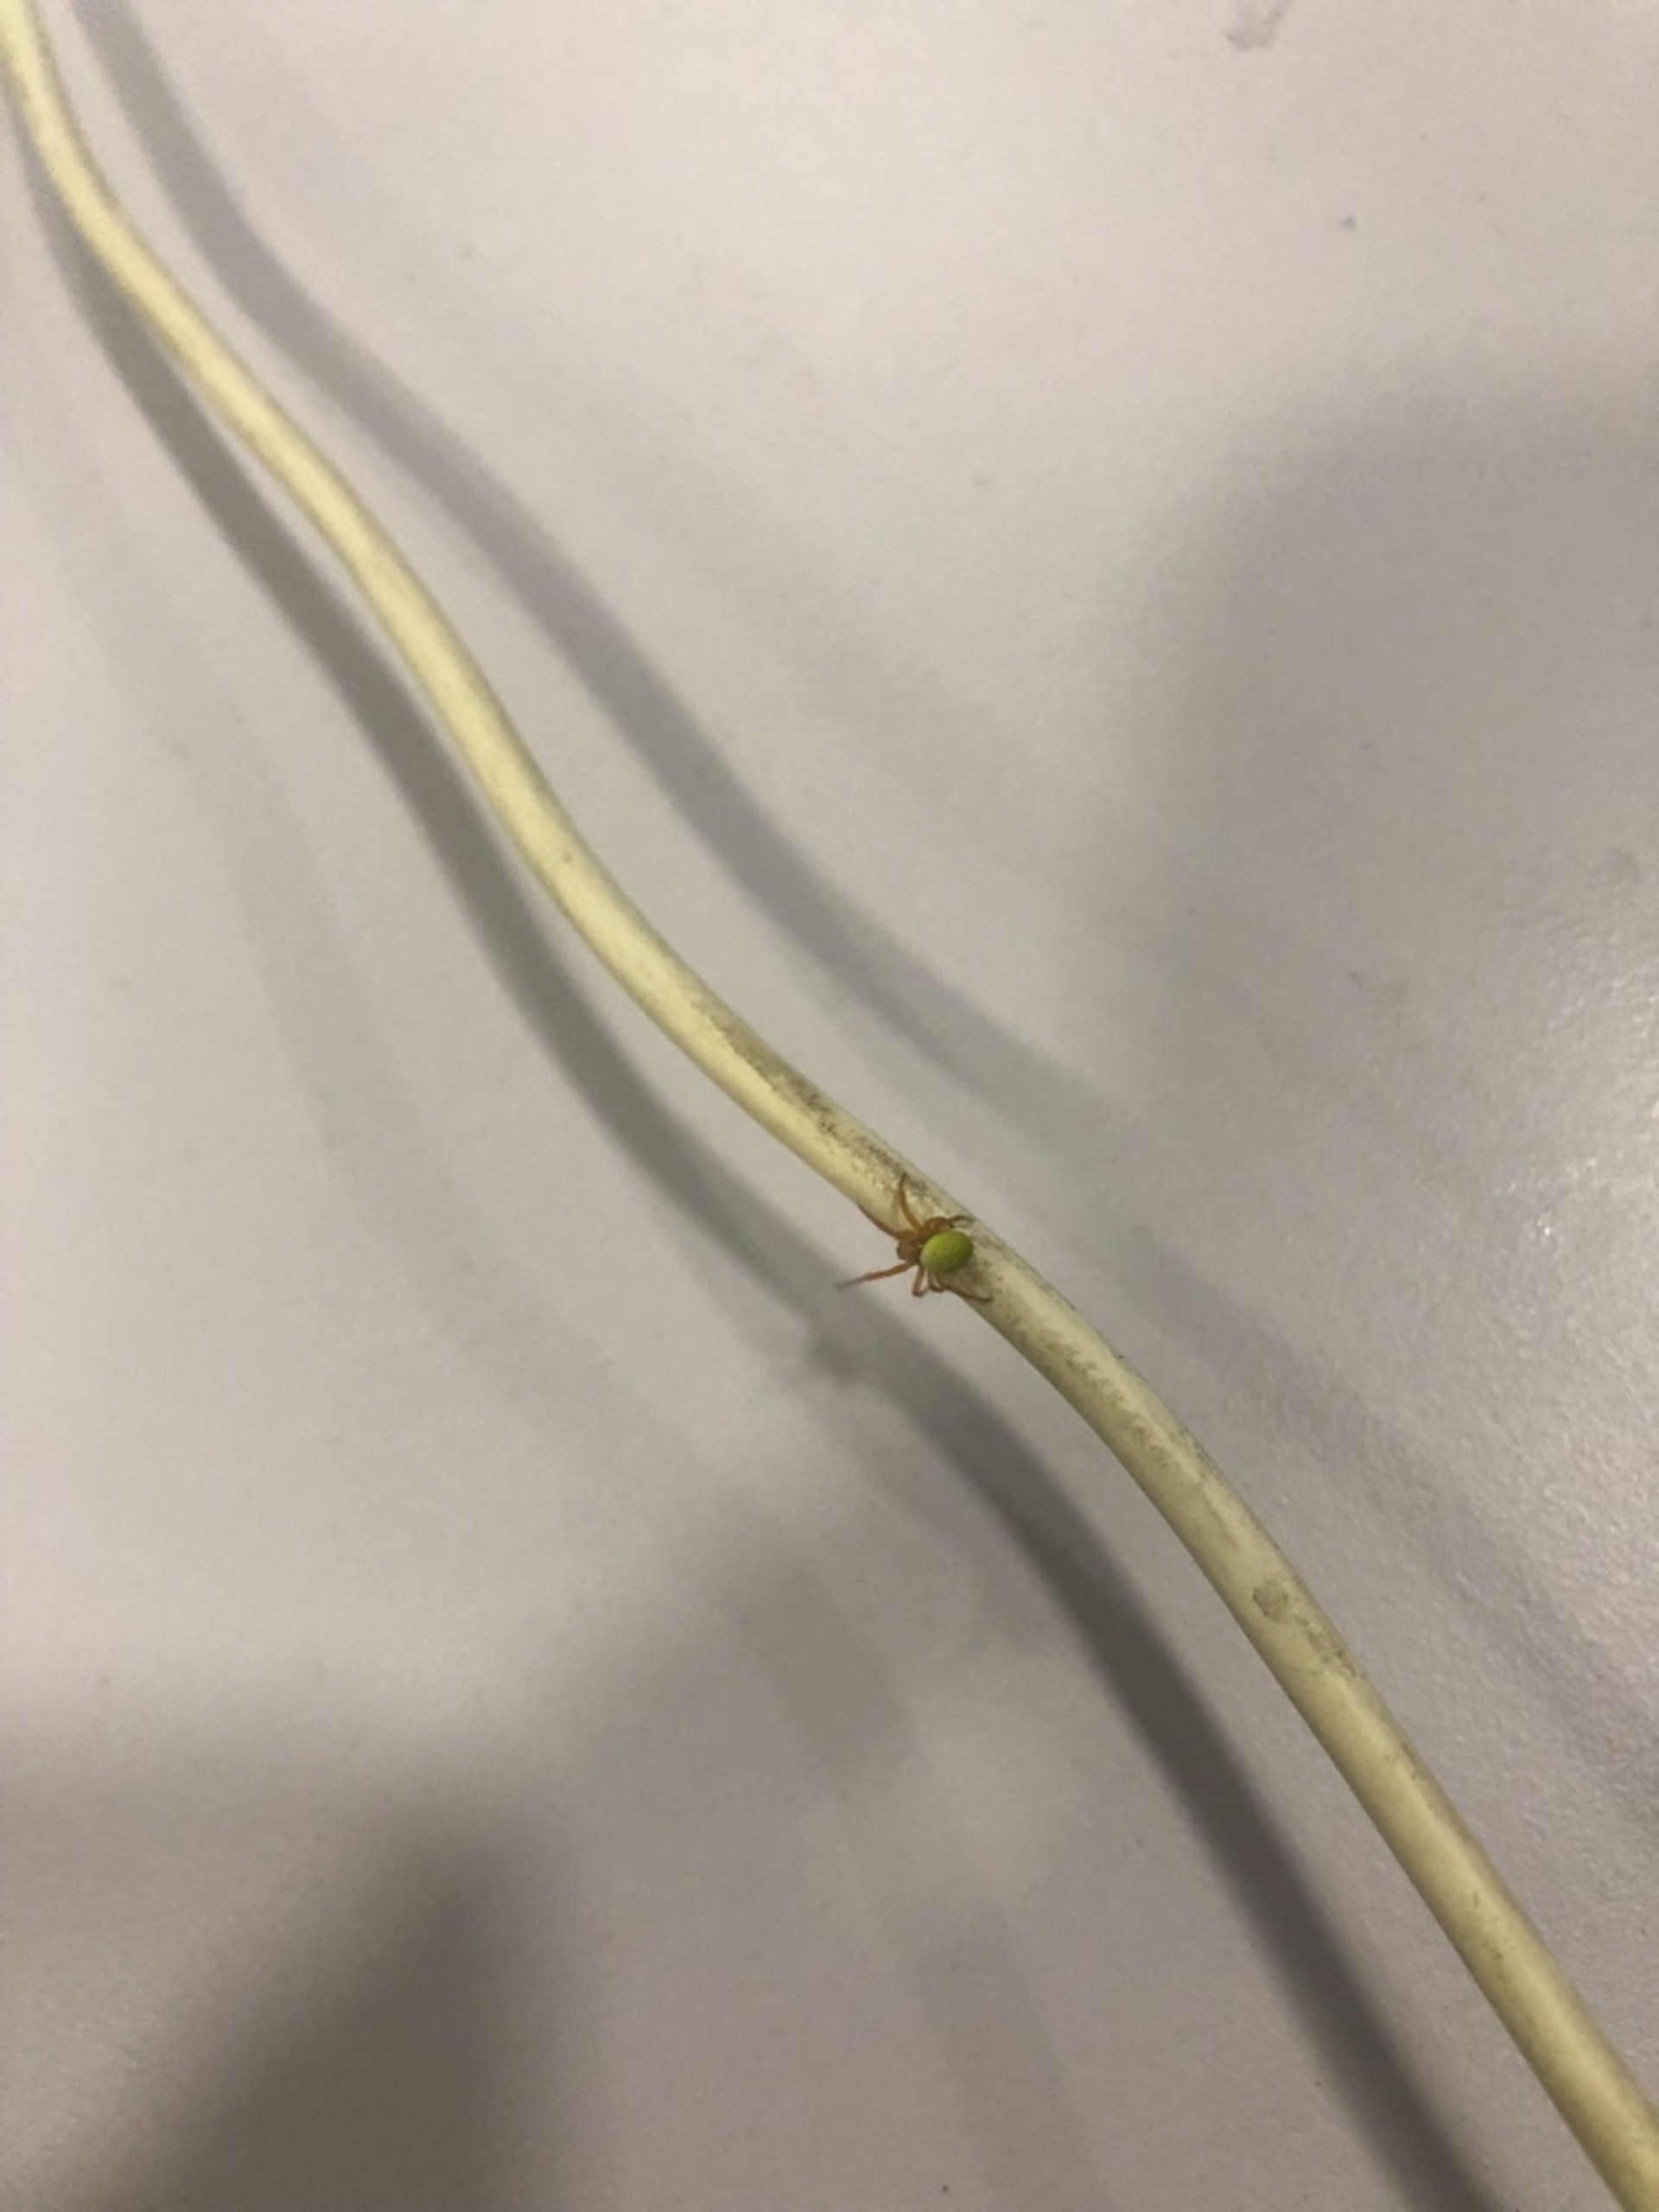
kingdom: Animalia
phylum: Arthropoda
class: Arachnida
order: Araneae
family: Araneidae
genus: Araniella
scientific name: Araniella
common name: Agurkeedderkopslægten
